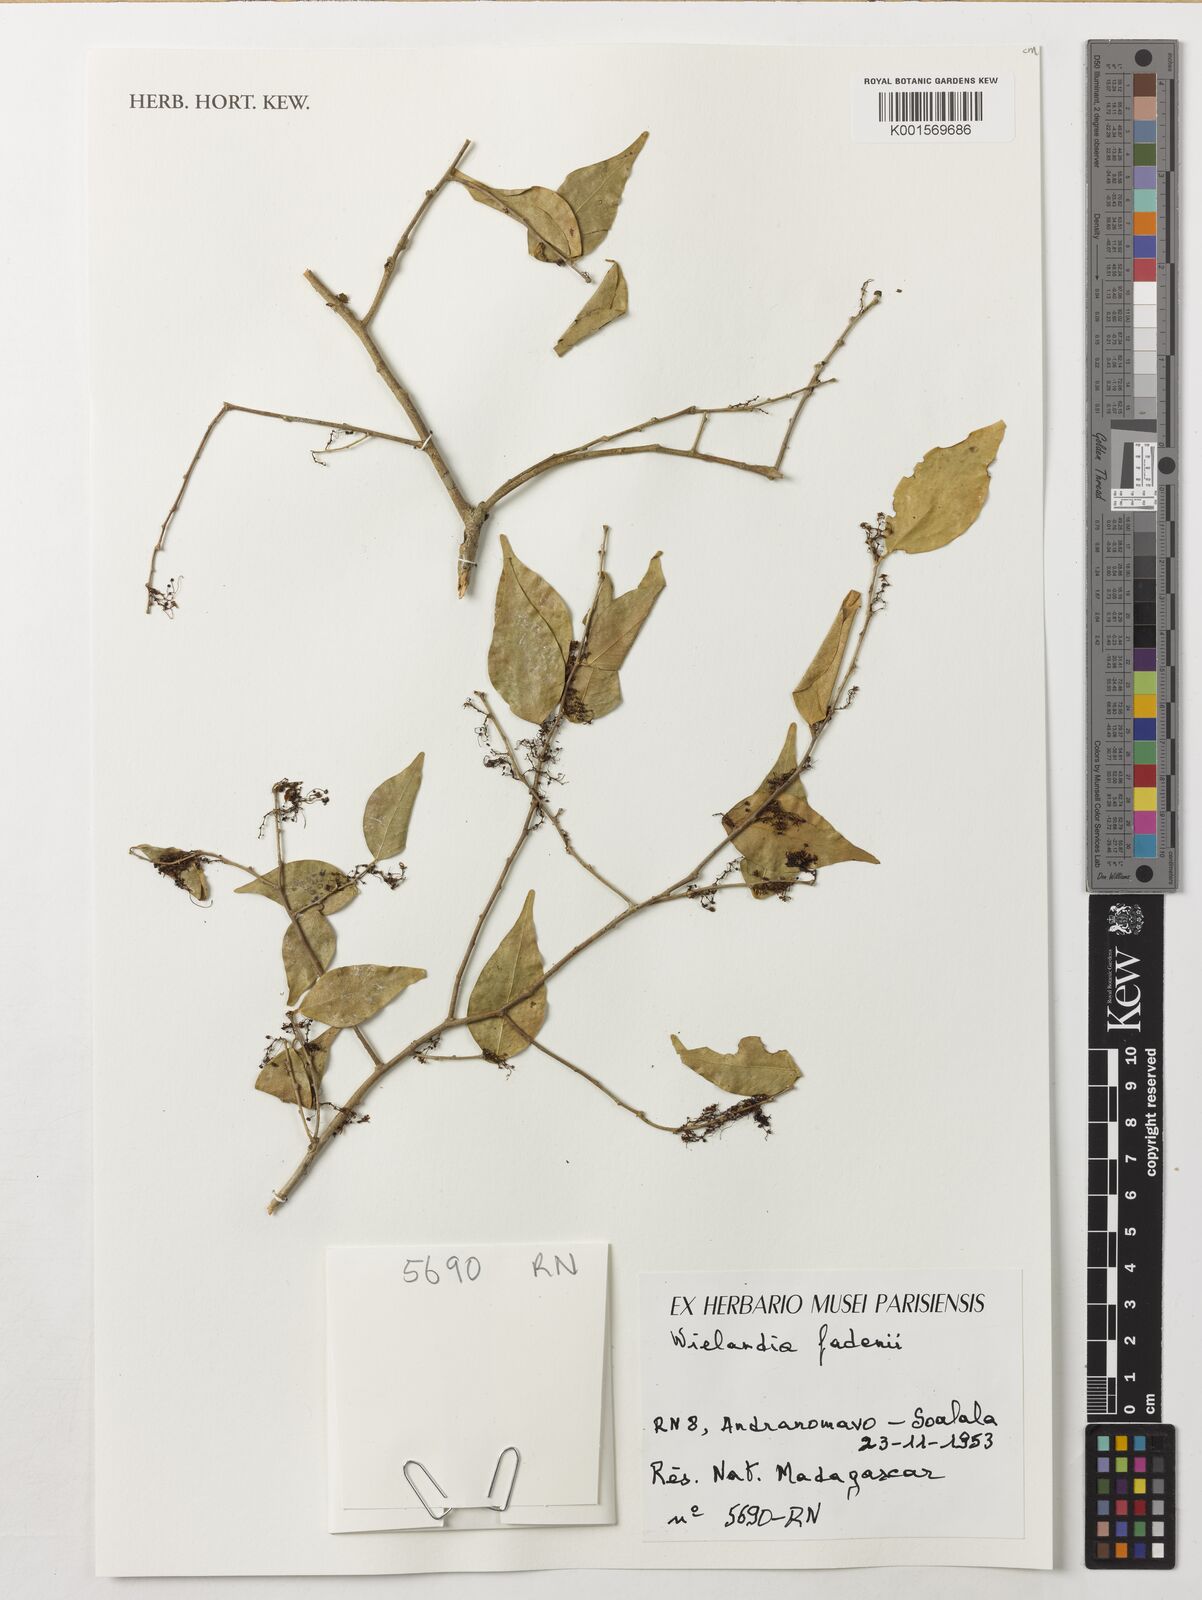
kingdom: Plantae
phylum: Tracheophyta
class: Magnoliopsida
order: Malpighiales
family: Phyllanthaceae
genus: Wielandia
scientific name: Wielandia fadenii
